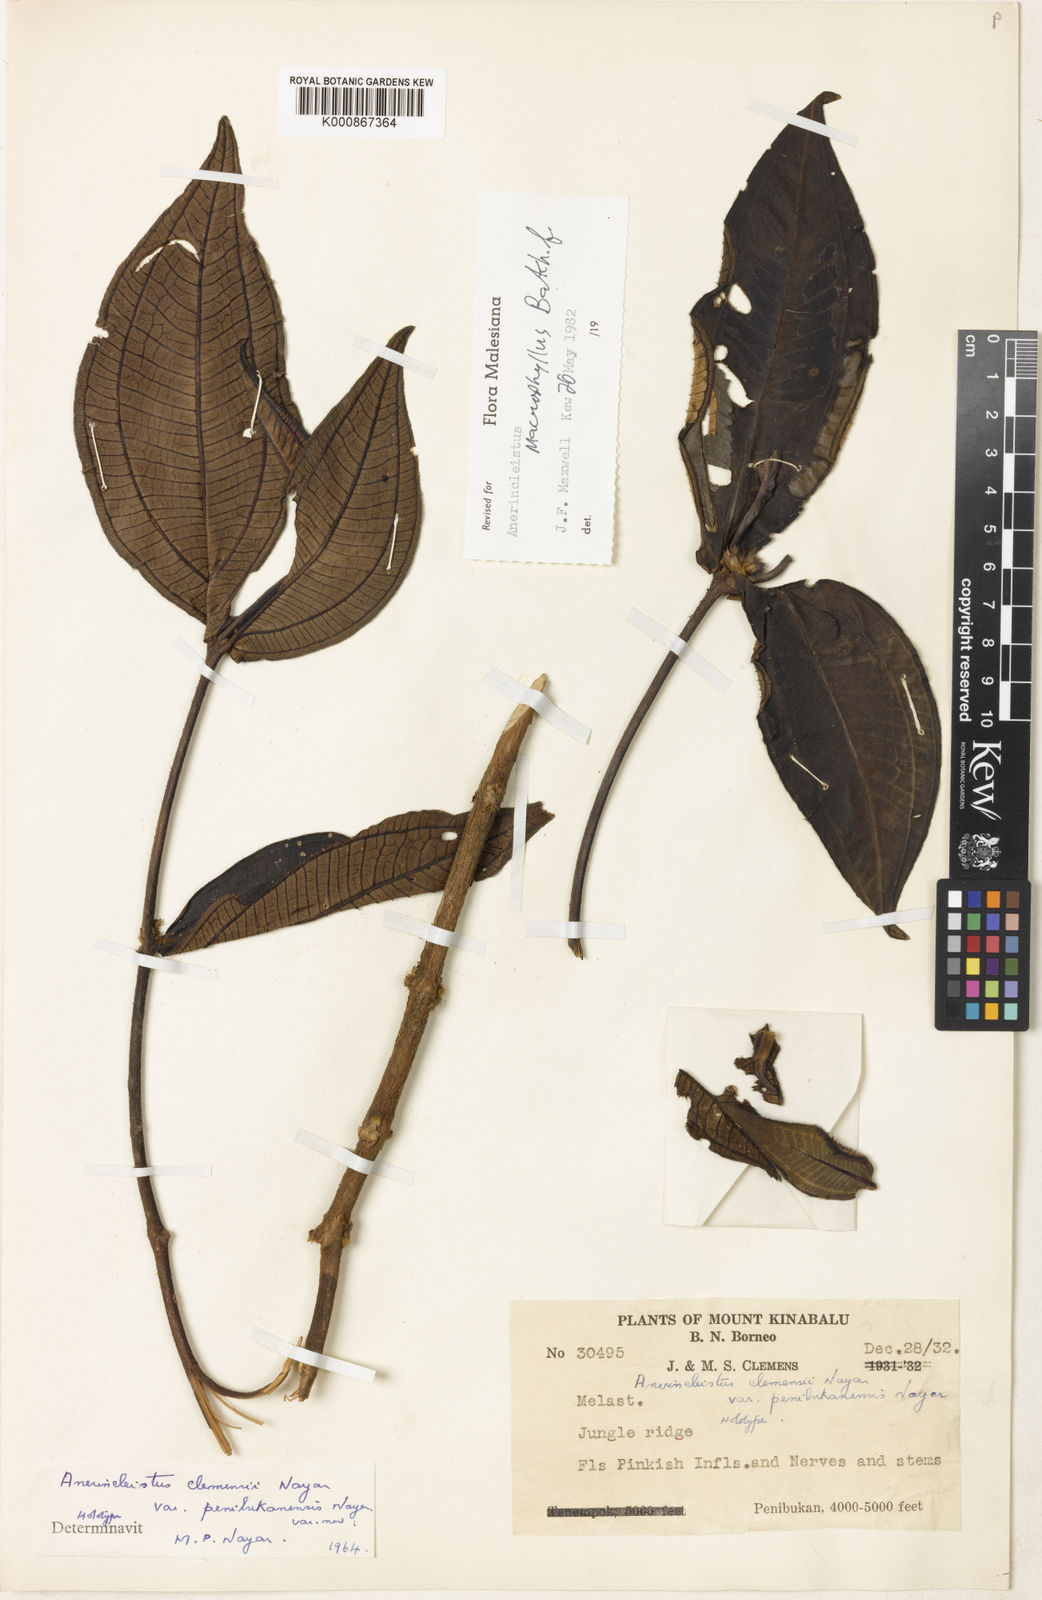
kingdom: Plantae
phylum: Tracheophyta
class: Magnoliopsida
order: Myrtales
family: Melastomataceae
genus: Anerincleistus
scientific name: Anerincleistus macrophyllus
